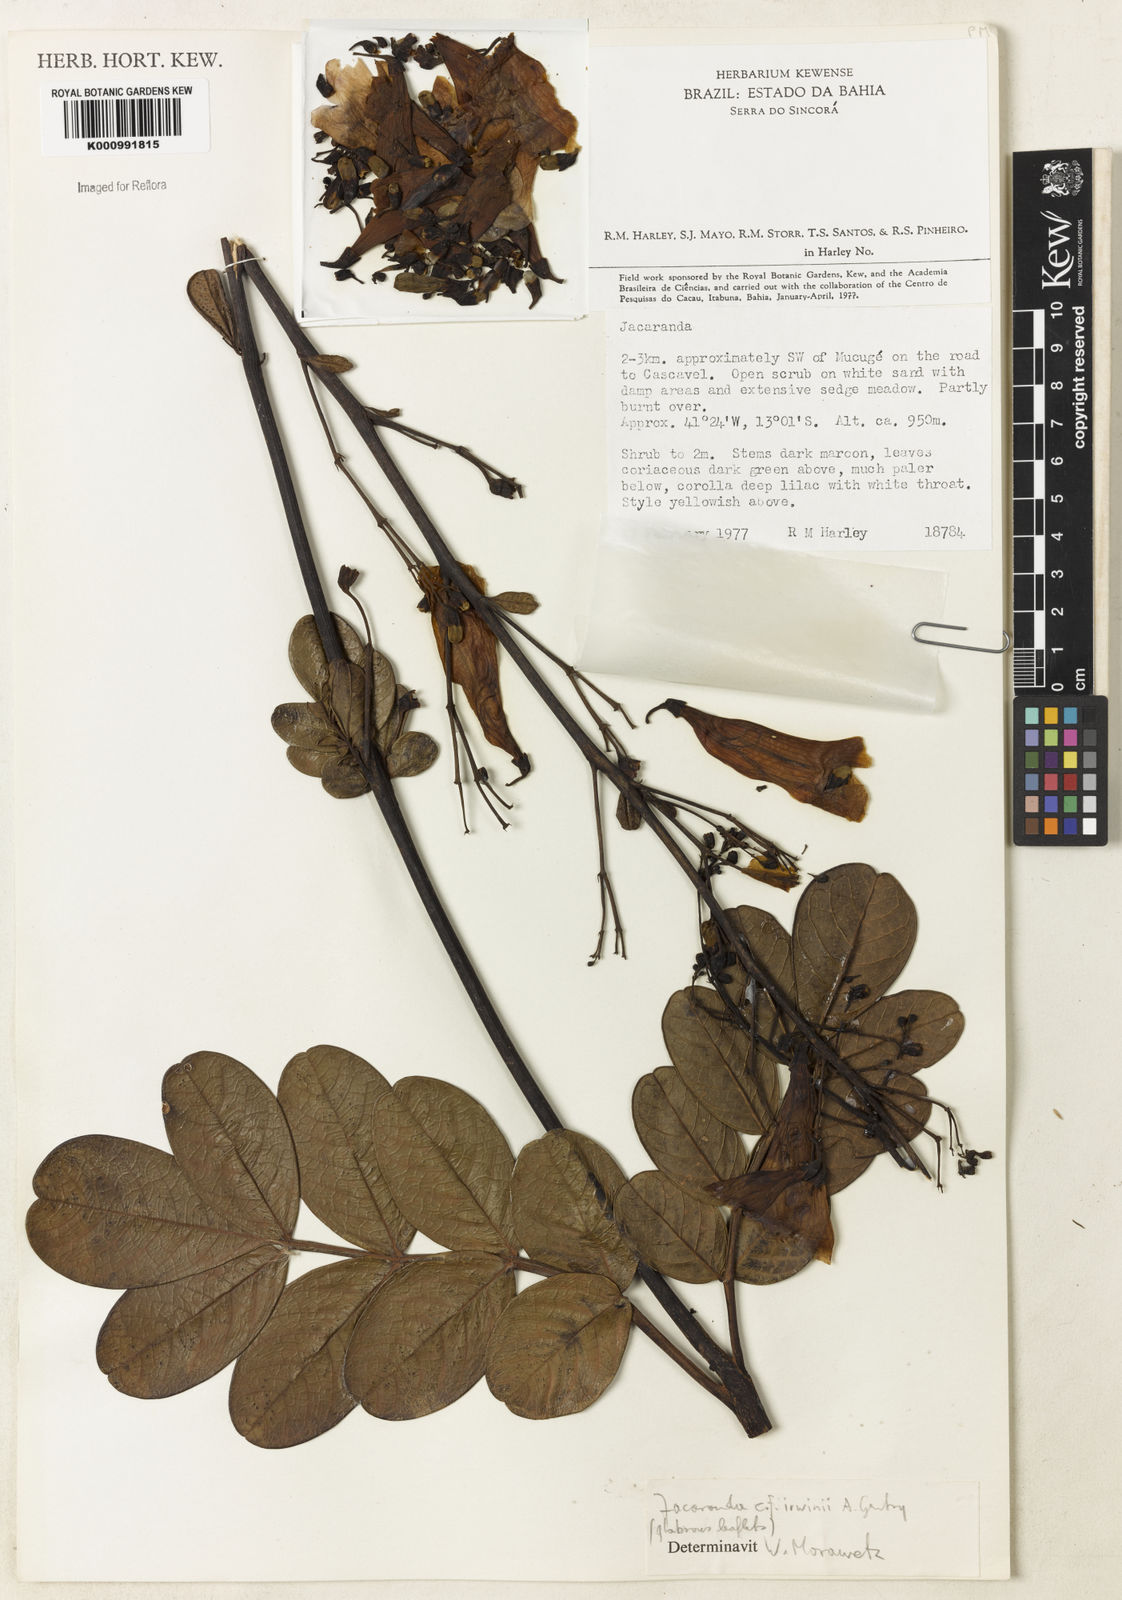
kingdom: Plantae
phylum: Tracheophyta
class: Magnoliopsida
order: Lamiales
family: Bignoniaceae
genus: Jacaranda
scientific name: Jacaranda irwinii
